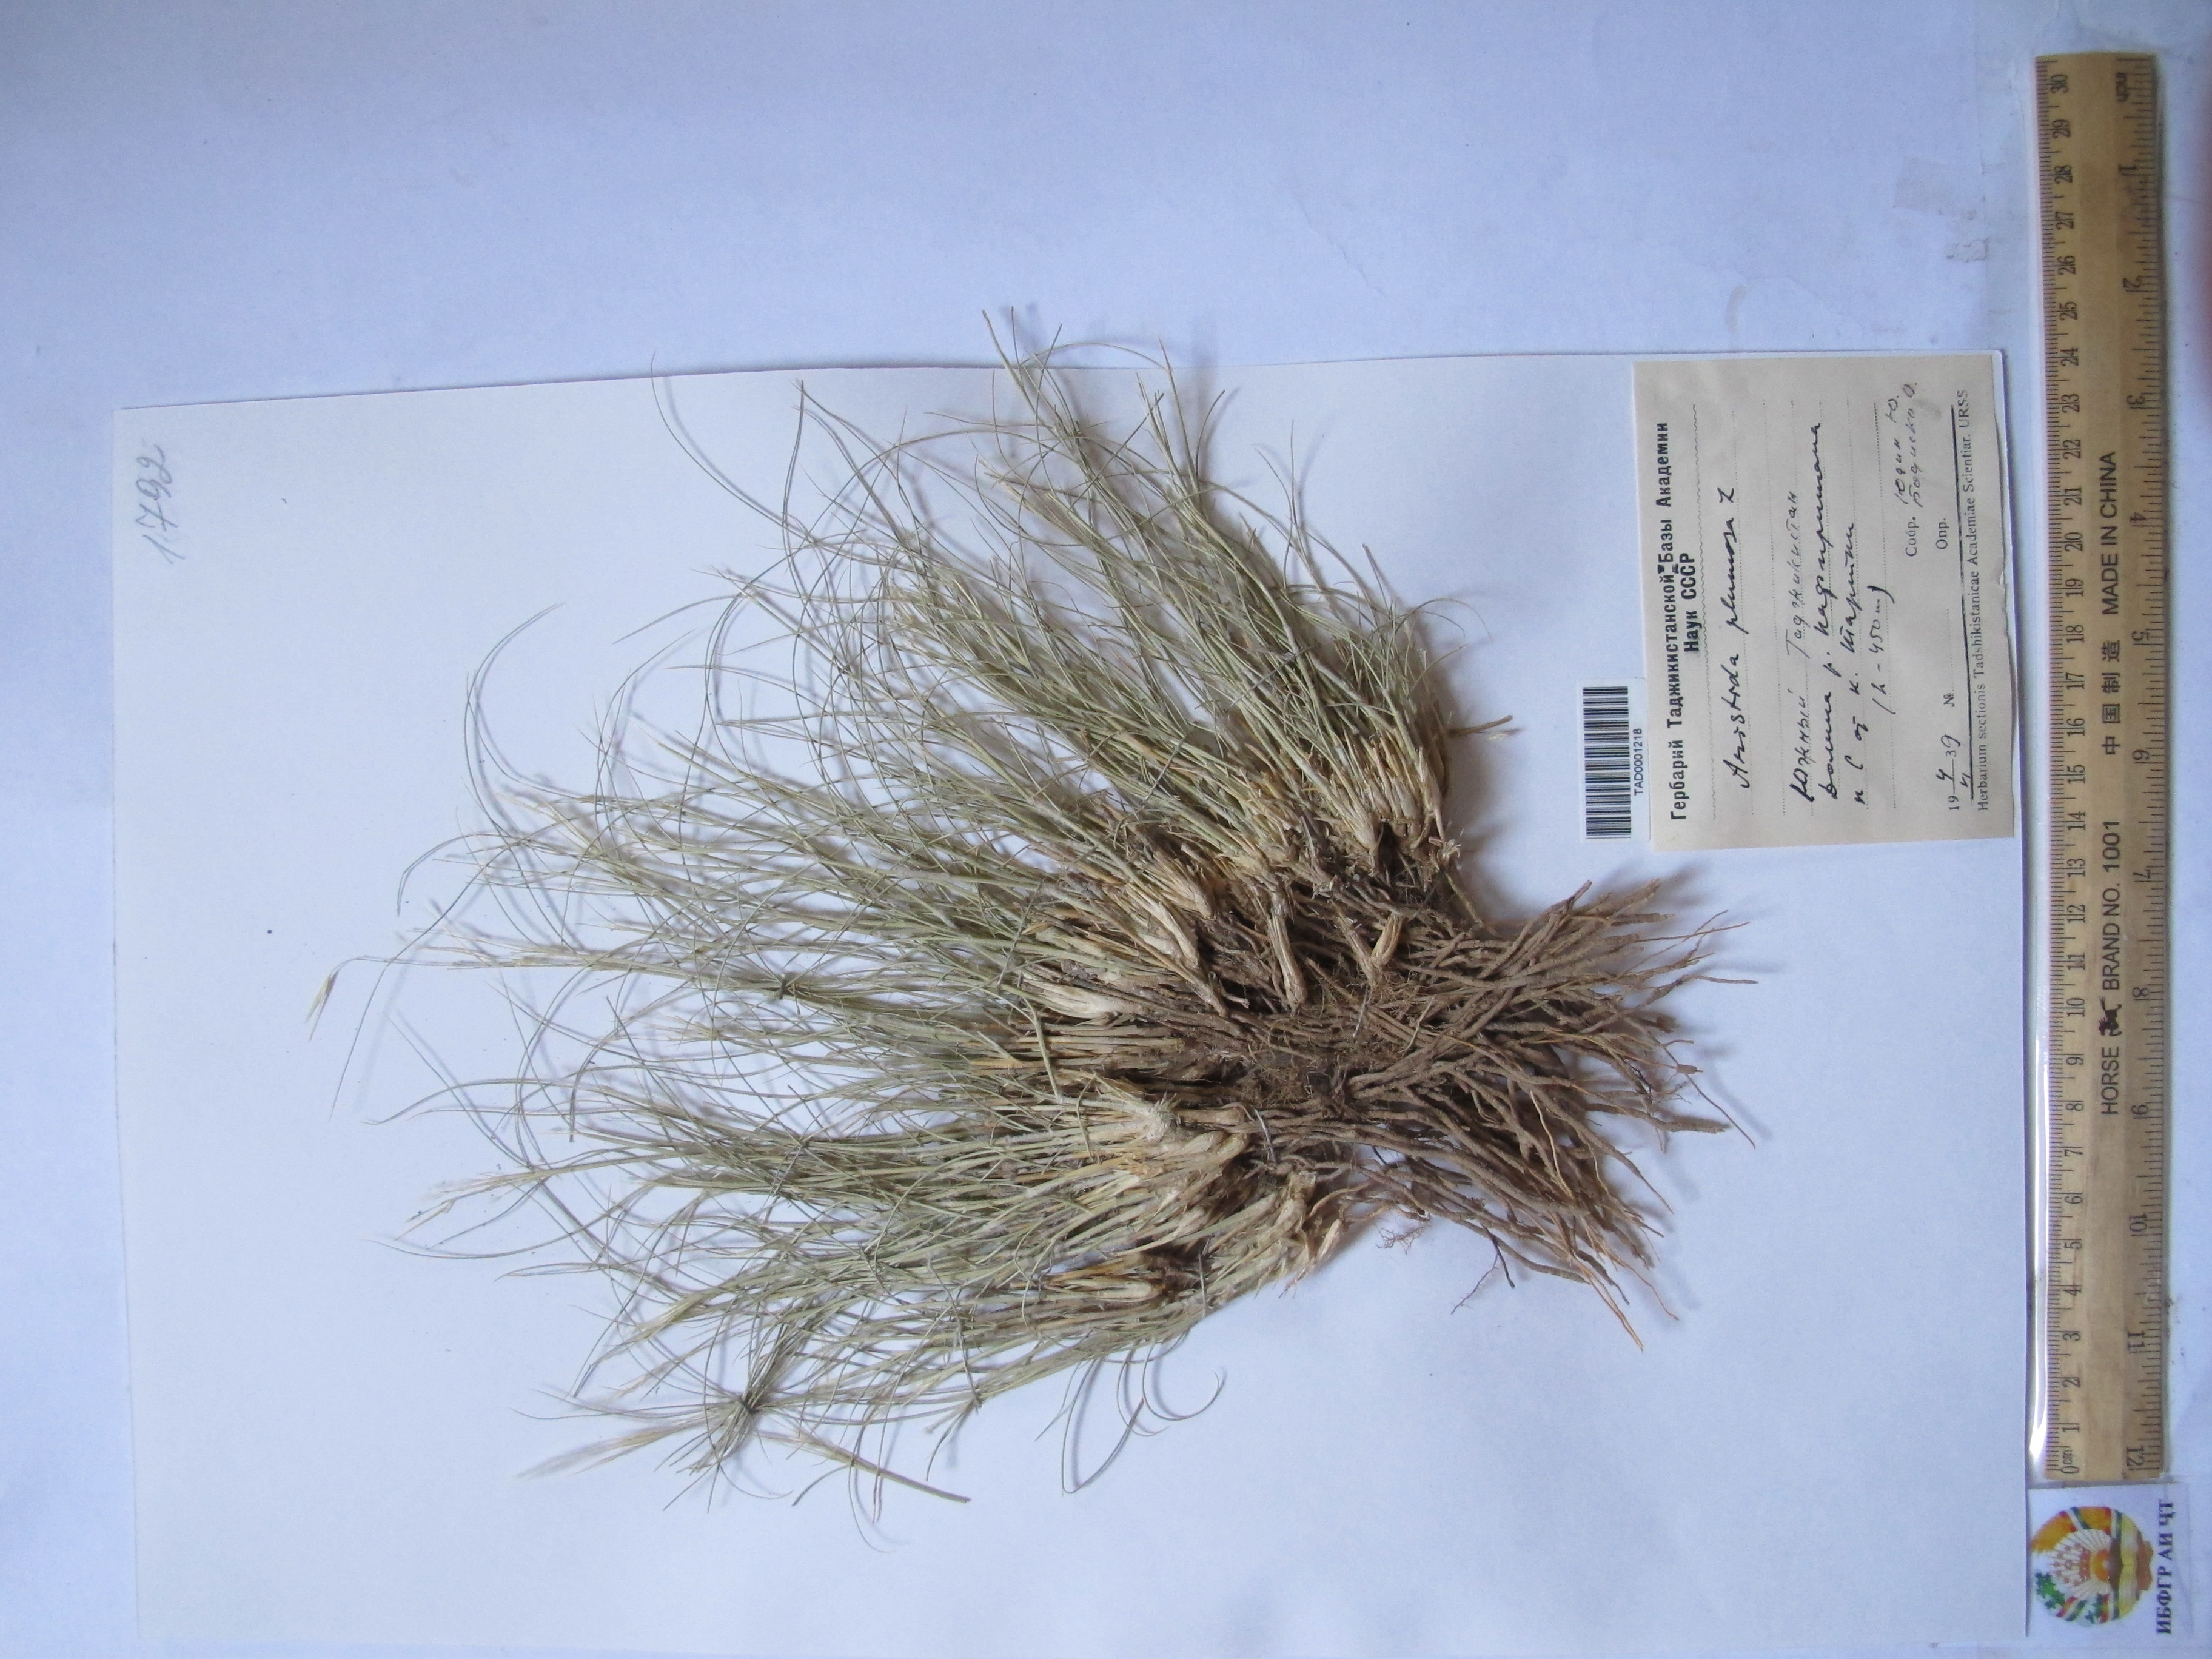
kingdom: Plantae
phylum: Tracheophyta
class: Liliopsida
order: Poales
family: Poaceae
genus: Stipagrostis
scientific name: Stipagrostis plumosa
